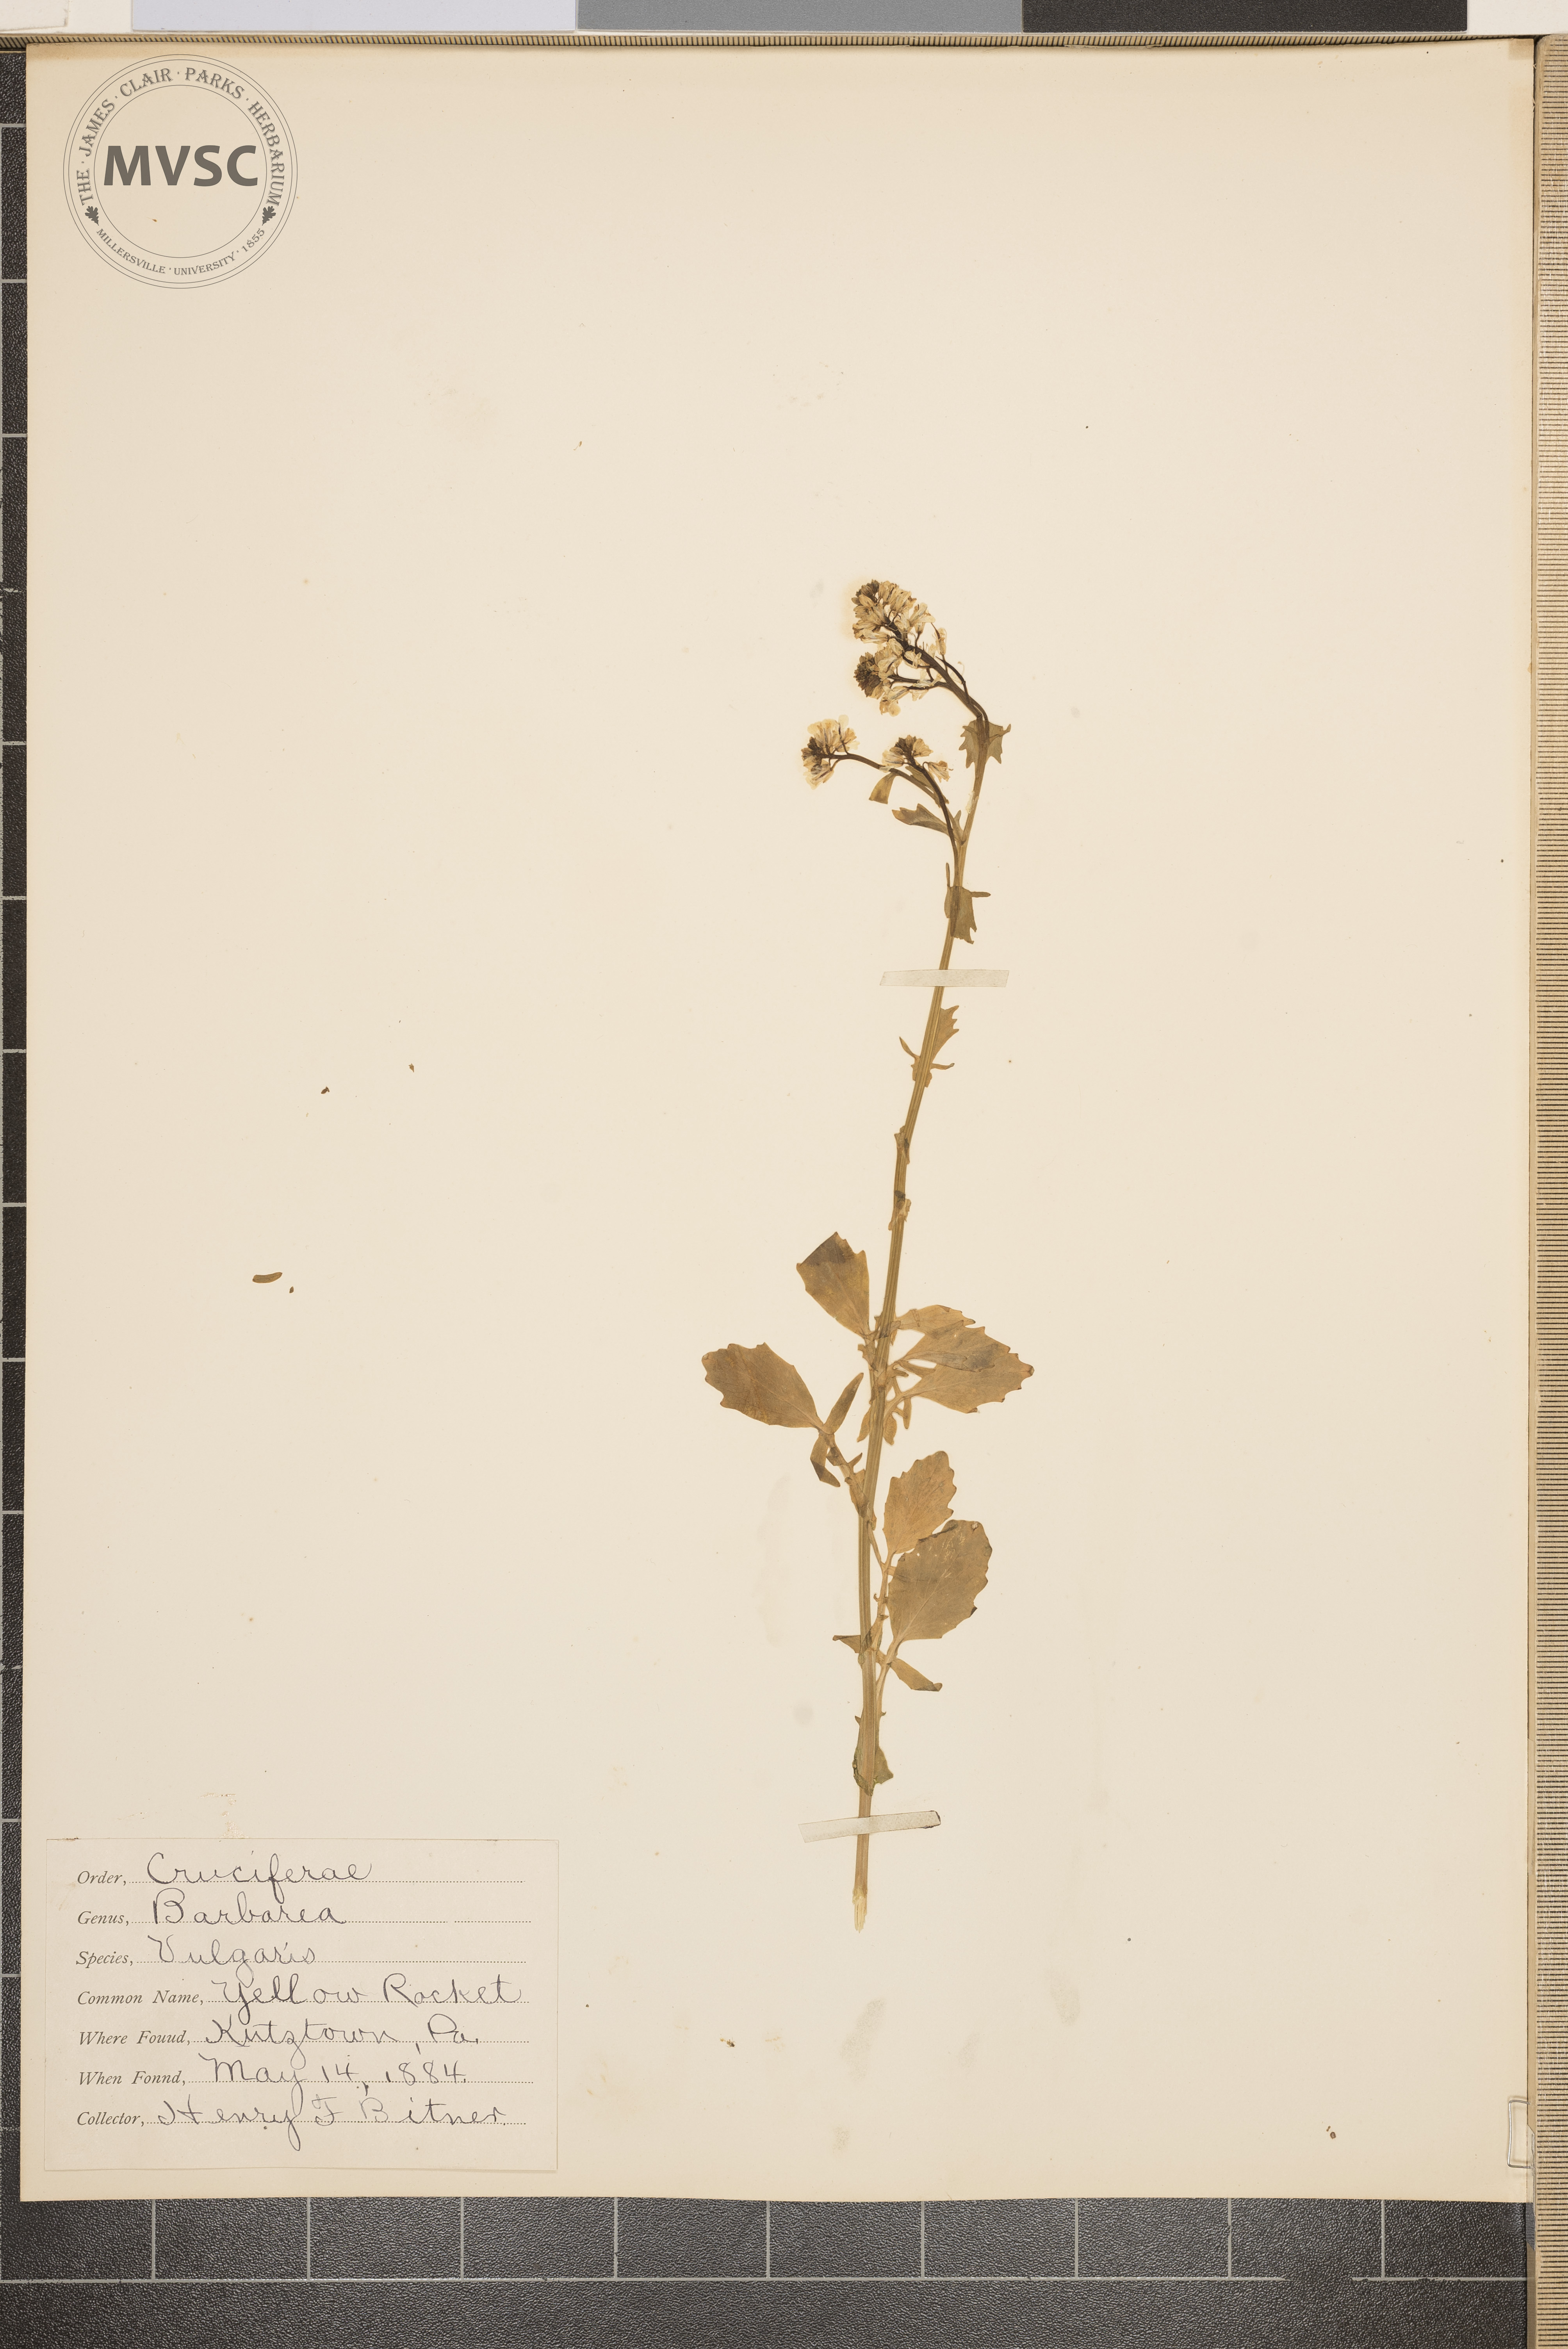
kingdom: Plantae
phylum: Tracheophyta
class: Magnoliopsida
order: Brassicales
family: Brassicaceae
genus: Barbarea
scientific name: Barbarea vulgaris
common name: Yellow rocket
